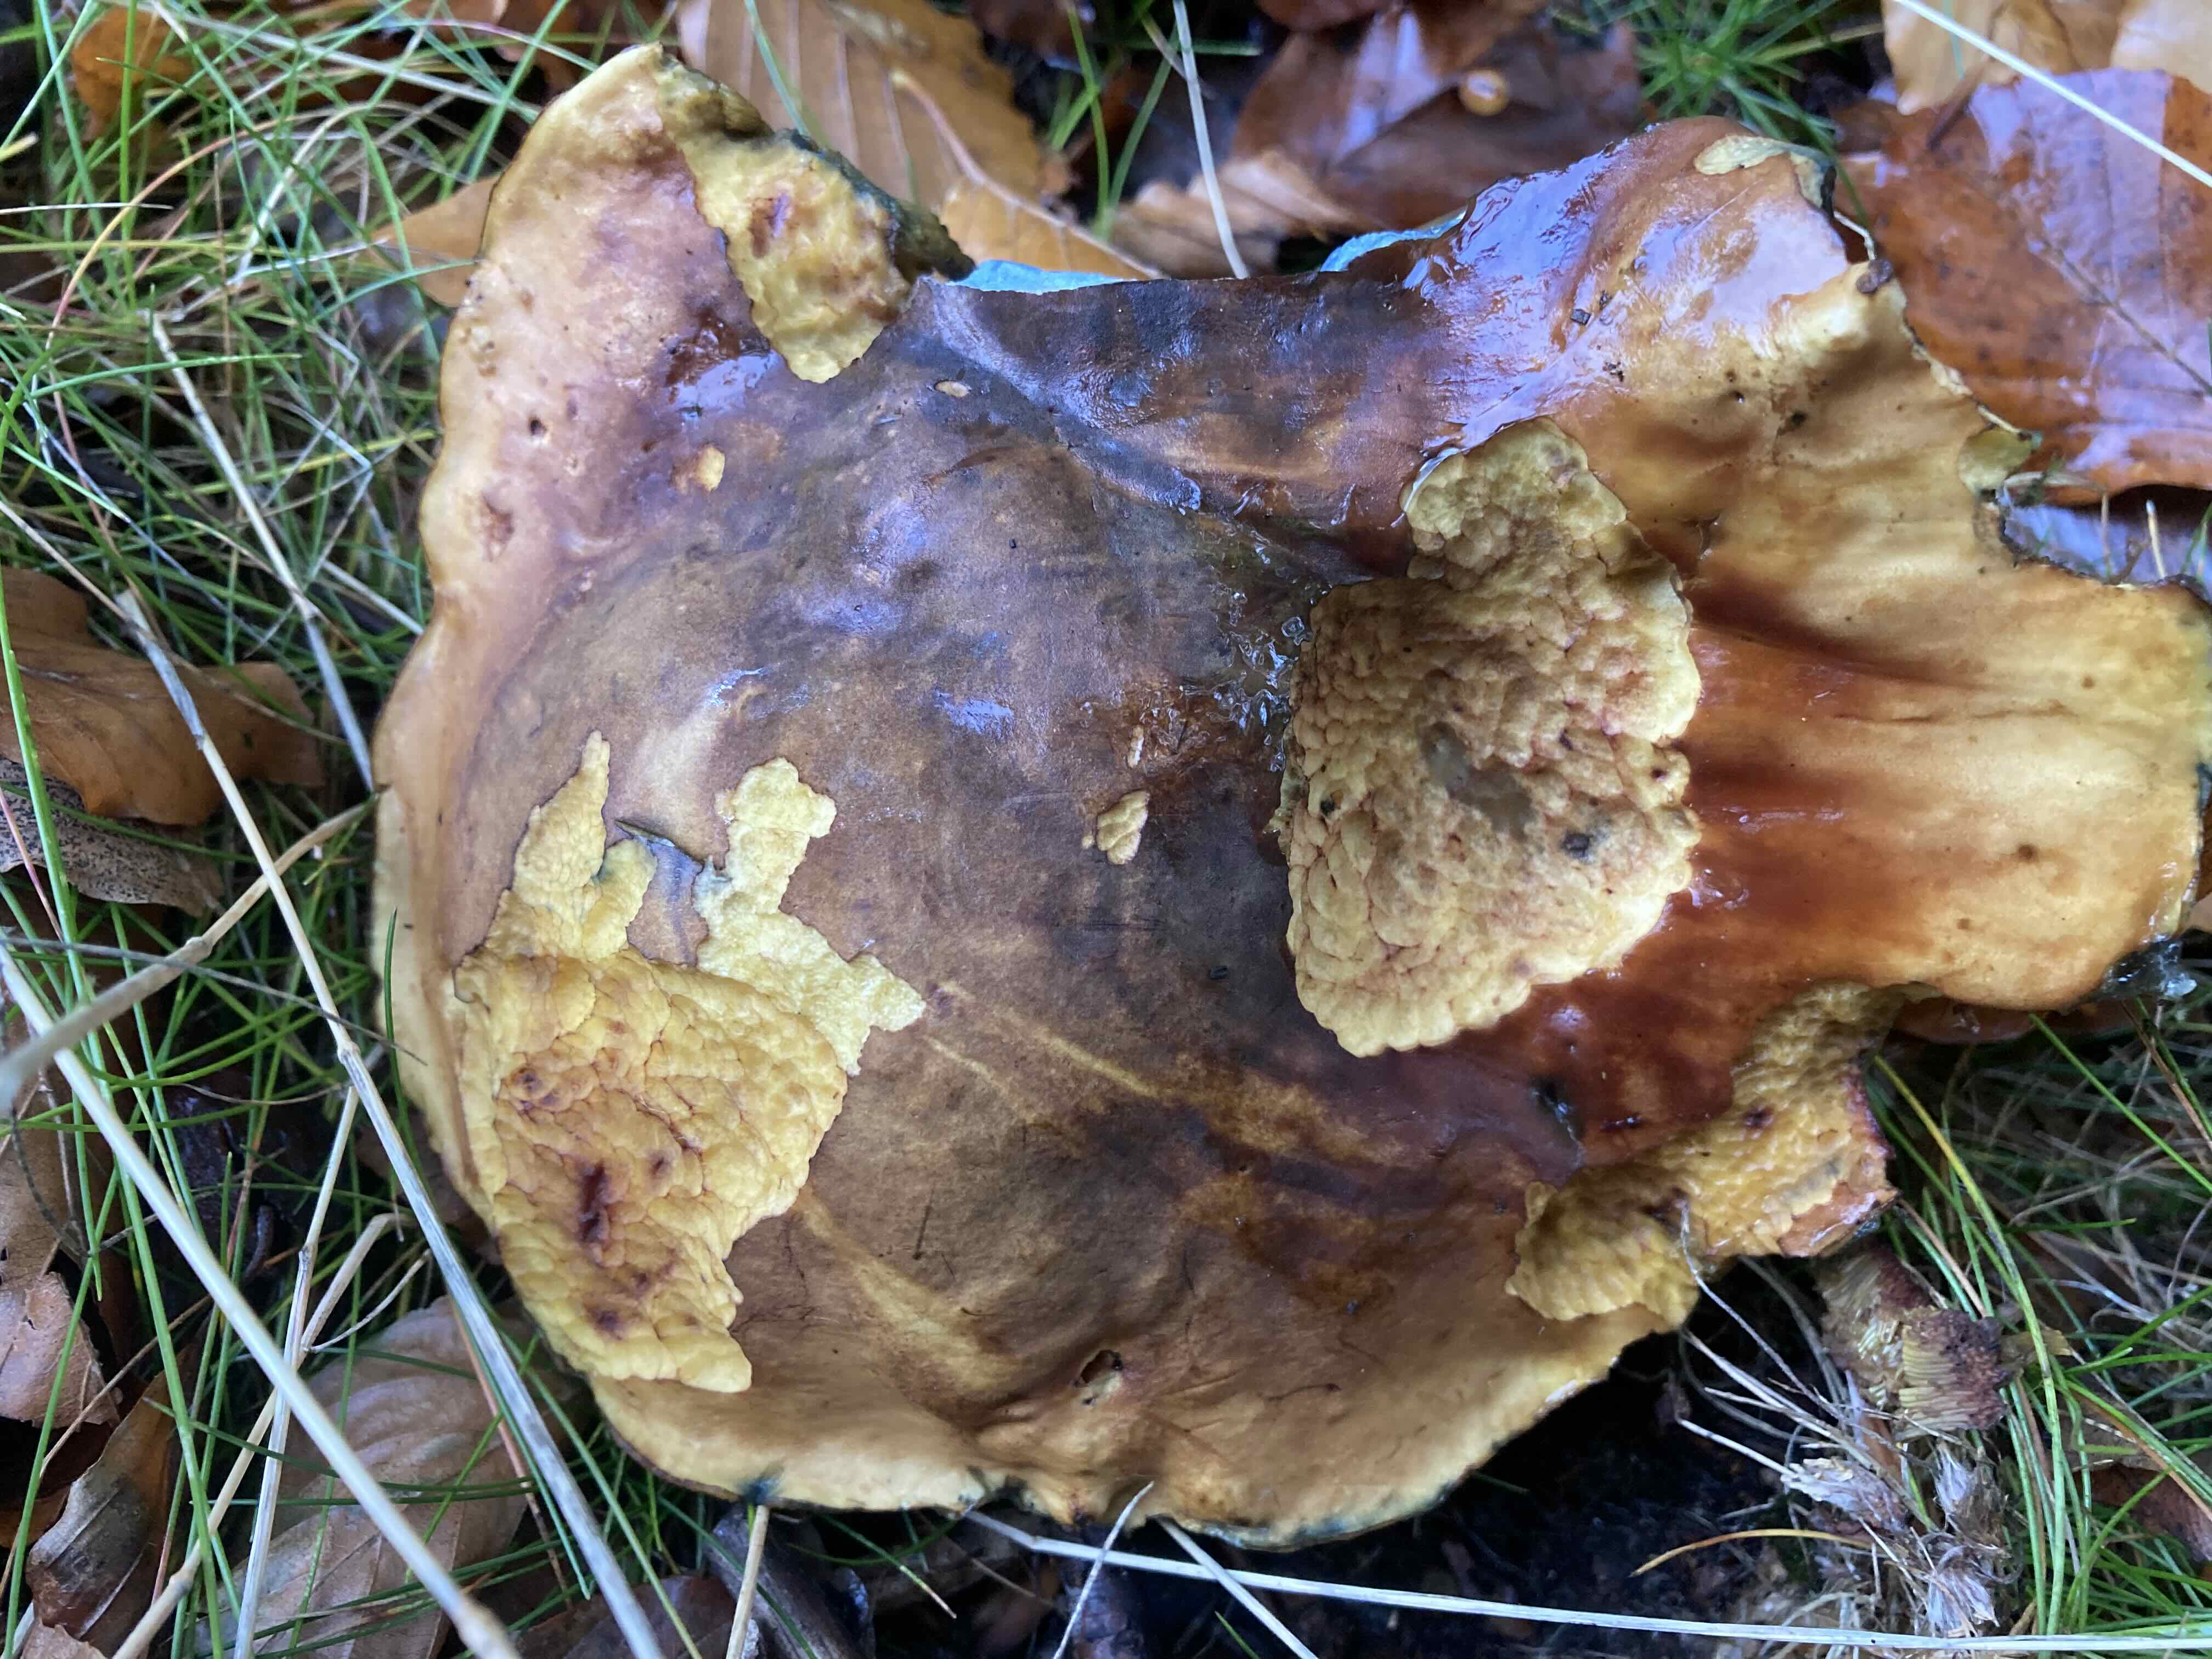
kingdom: Fungi
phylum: Basidiomycota
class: Agaricomycetes
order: Boletales
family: Boletaceae
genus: Neoboletus
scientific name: Neoboletus erythropus
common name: punktstokket indigorørhat
